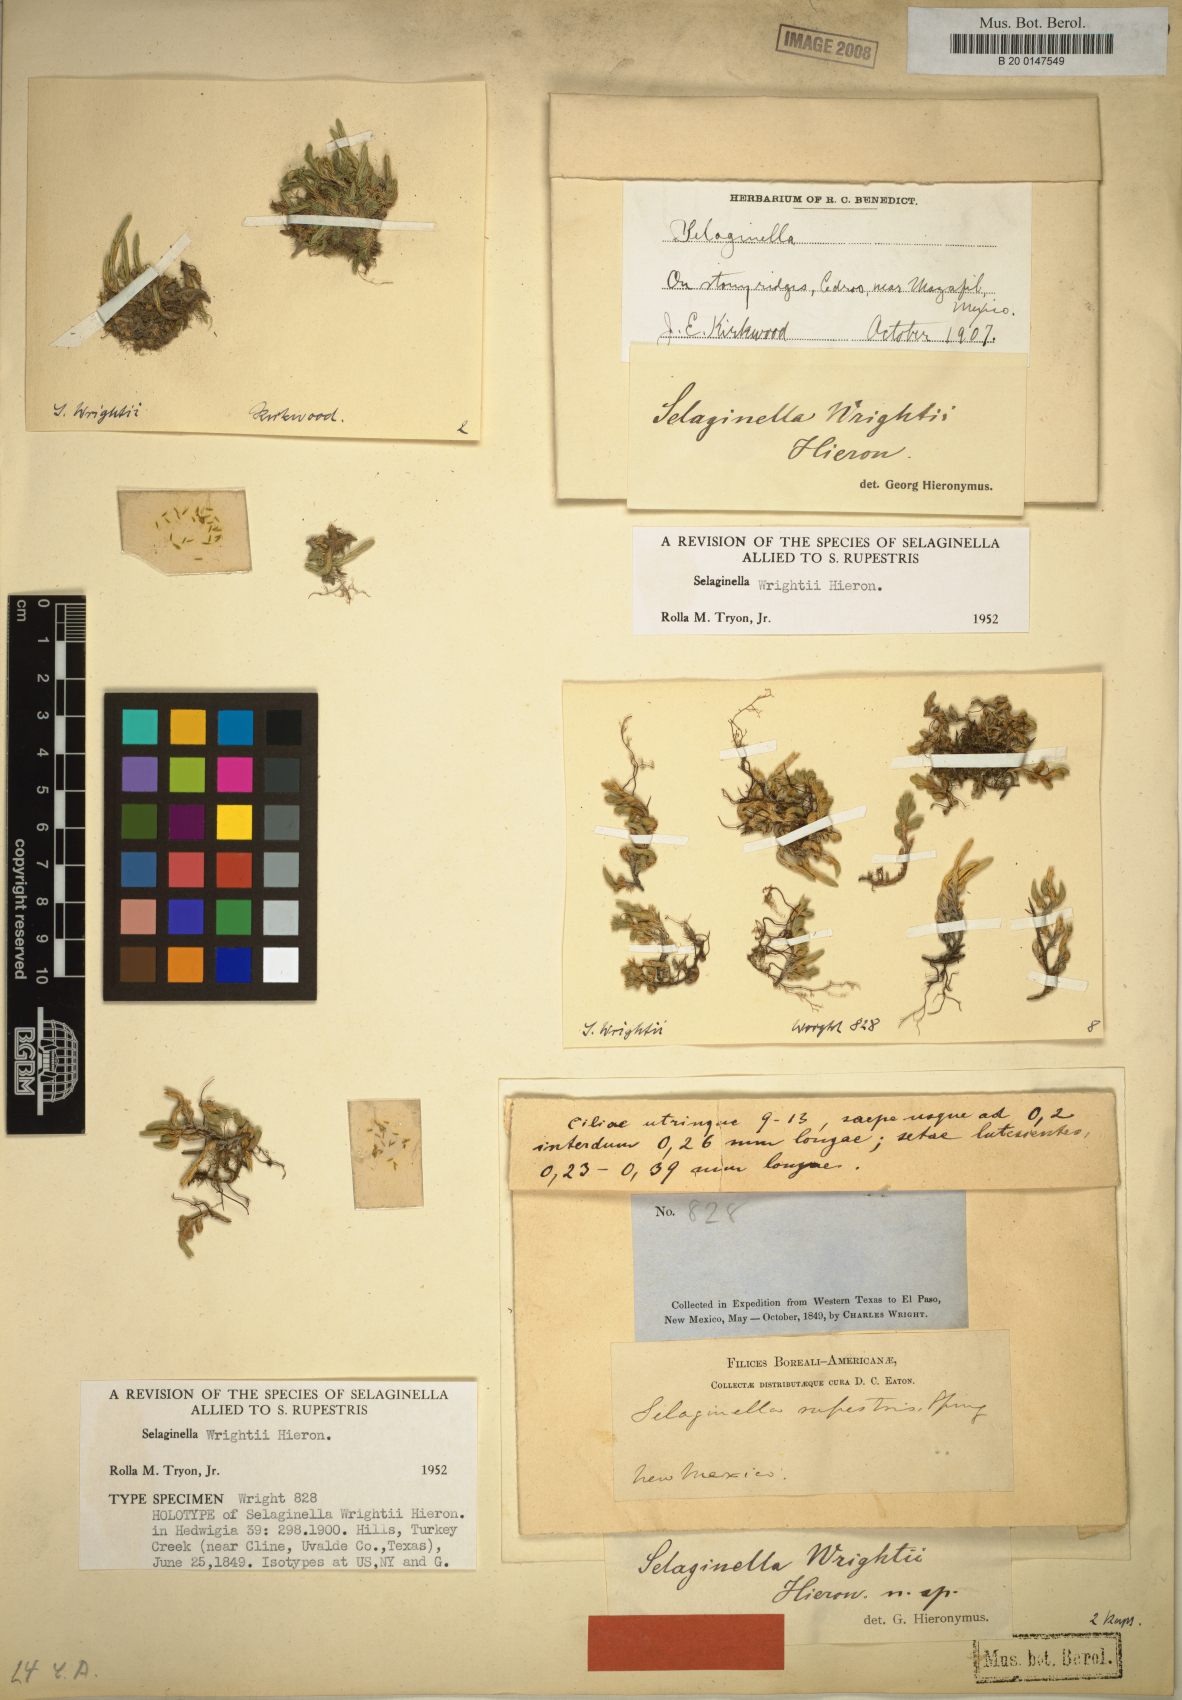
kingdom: Plantae
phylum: Tracheophyta
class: Lycopodiopsida
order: Selaginellales
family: Selaginellaceae
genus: Selaginella
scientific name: Selaginella wrightii
